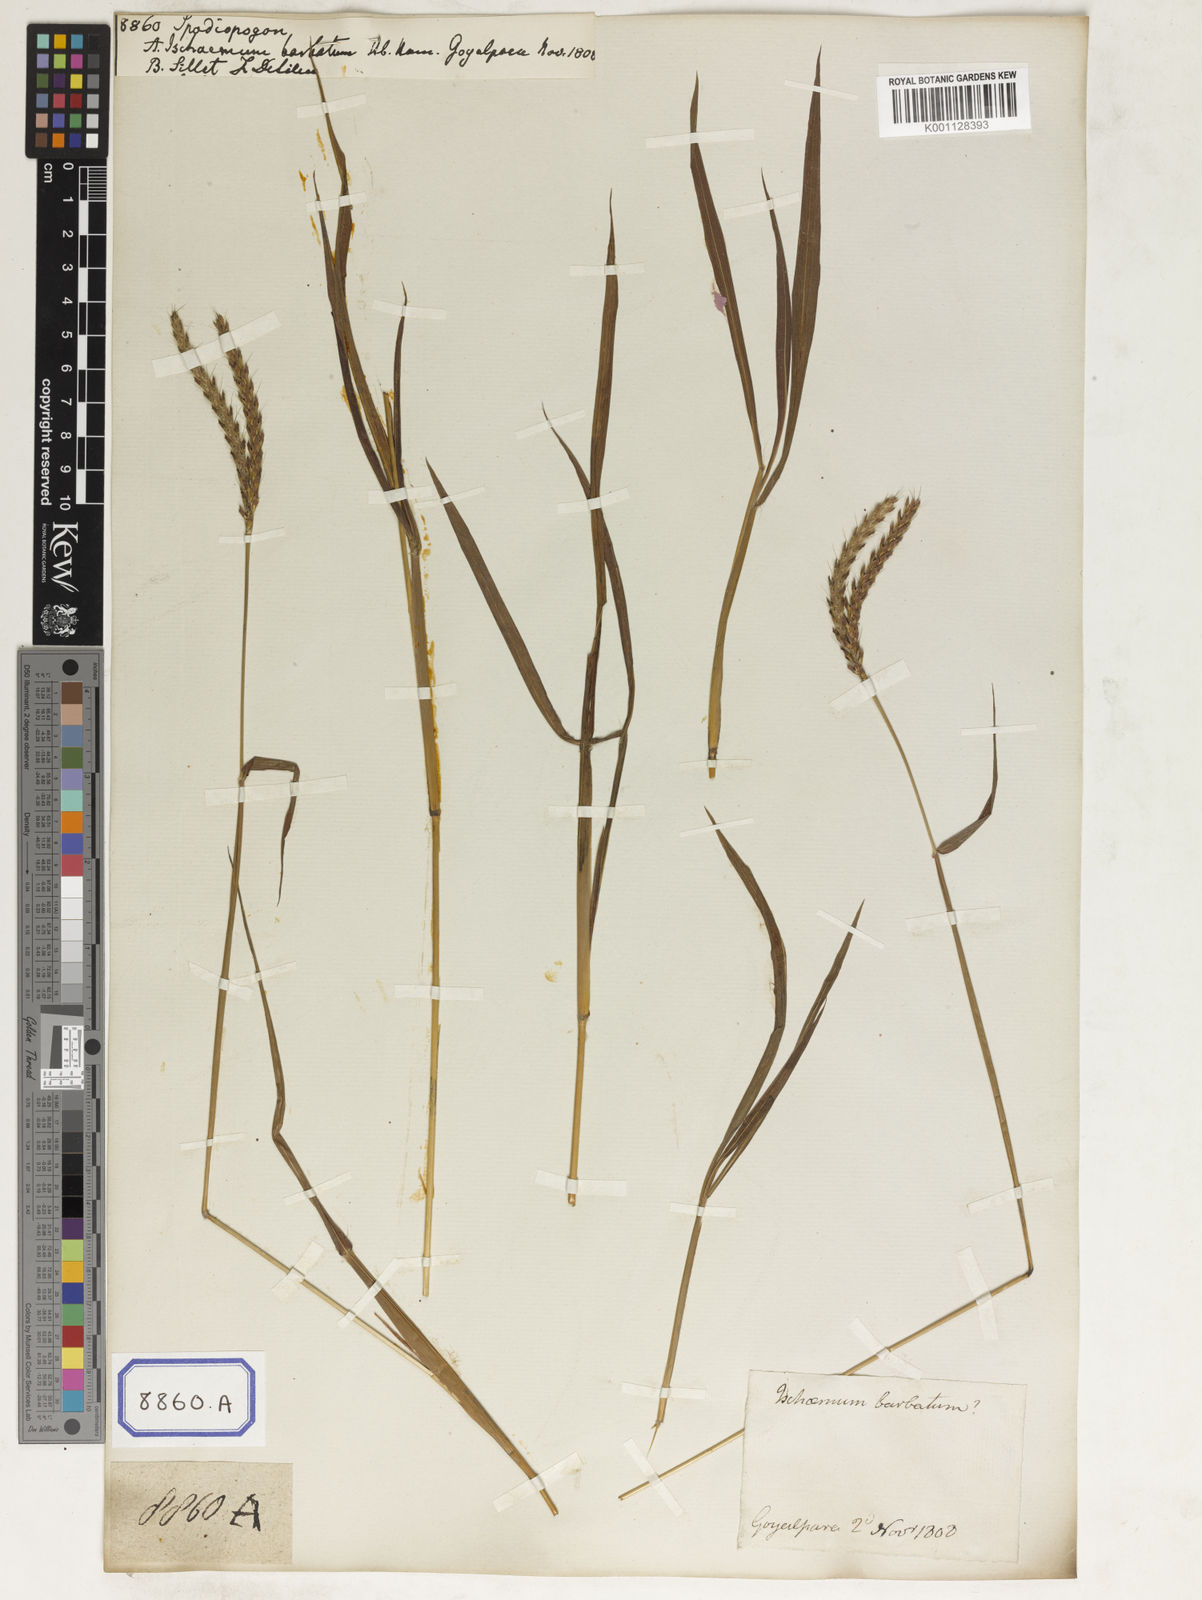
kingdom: Plantae
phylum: Tracheophyta
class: Liliopsida
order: Poales
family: Poaceae
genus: Spodiopogon
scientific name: Spodiopogon
